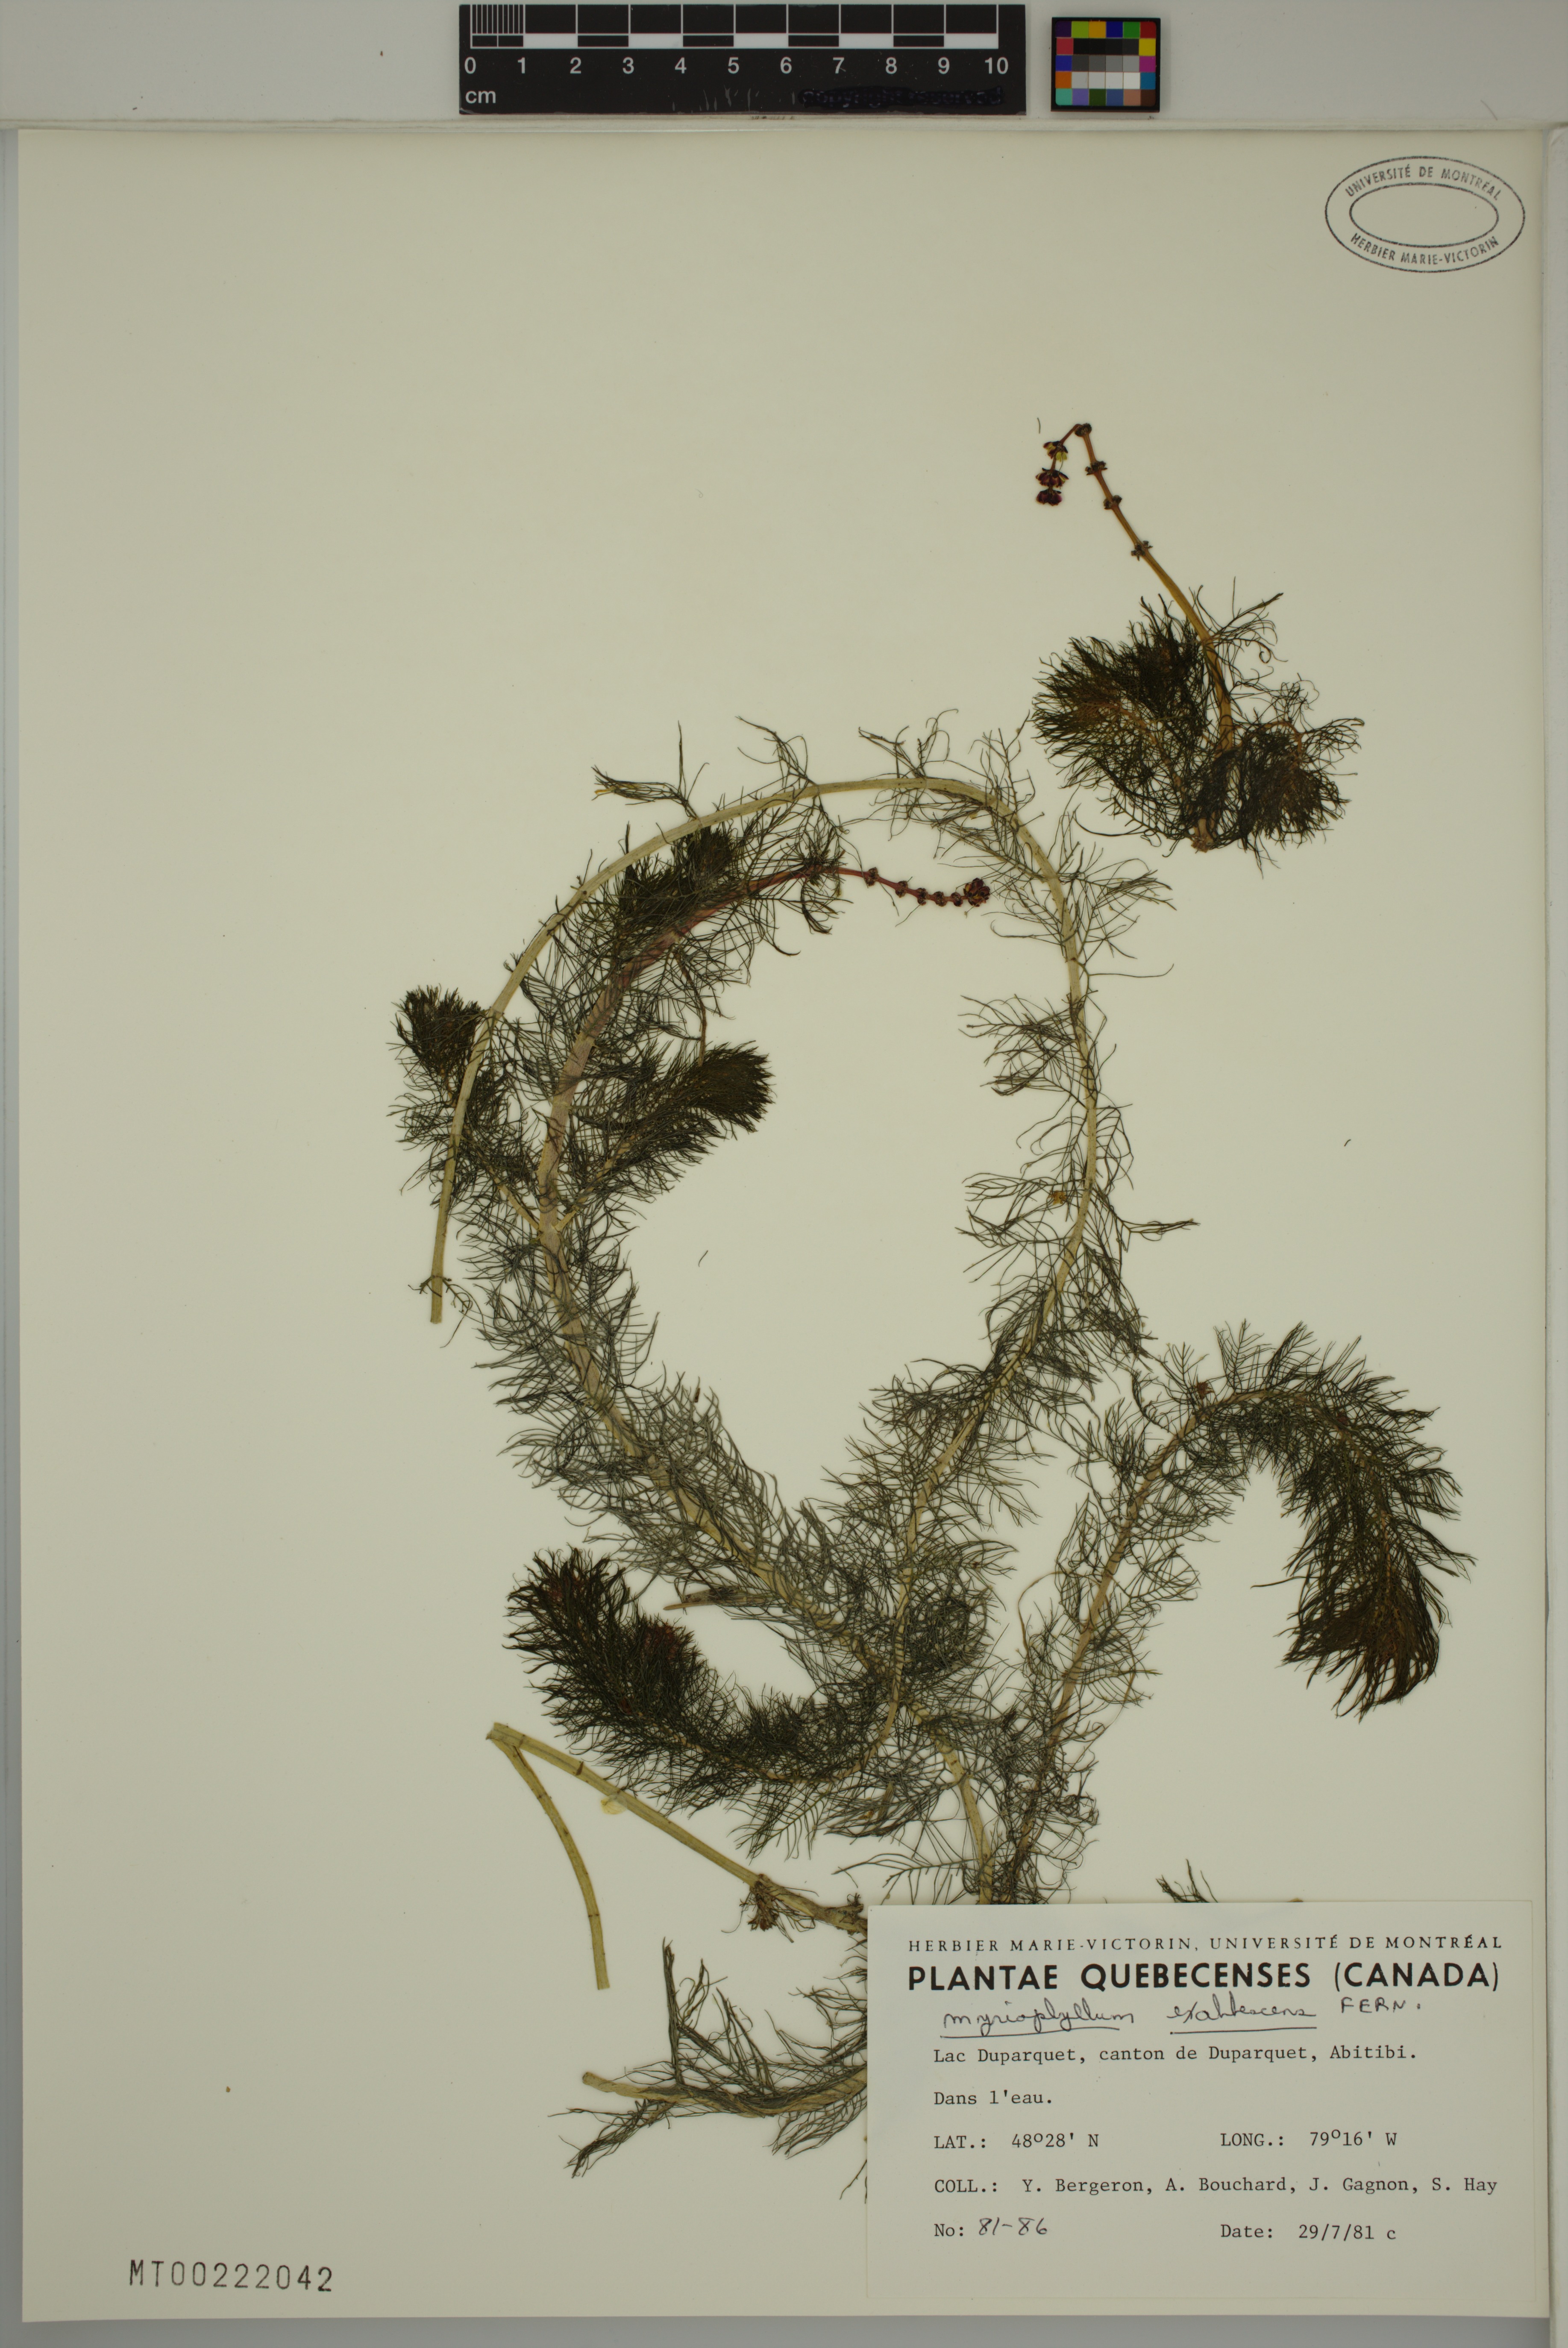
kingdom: Plantae
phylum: Tracheophyta
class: Magnoliopsida
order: Saxifragales
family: Haloragaceae
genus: Myriophyllum
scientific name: Myriophyllum sibiricum
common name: Siberian water-milfoil
